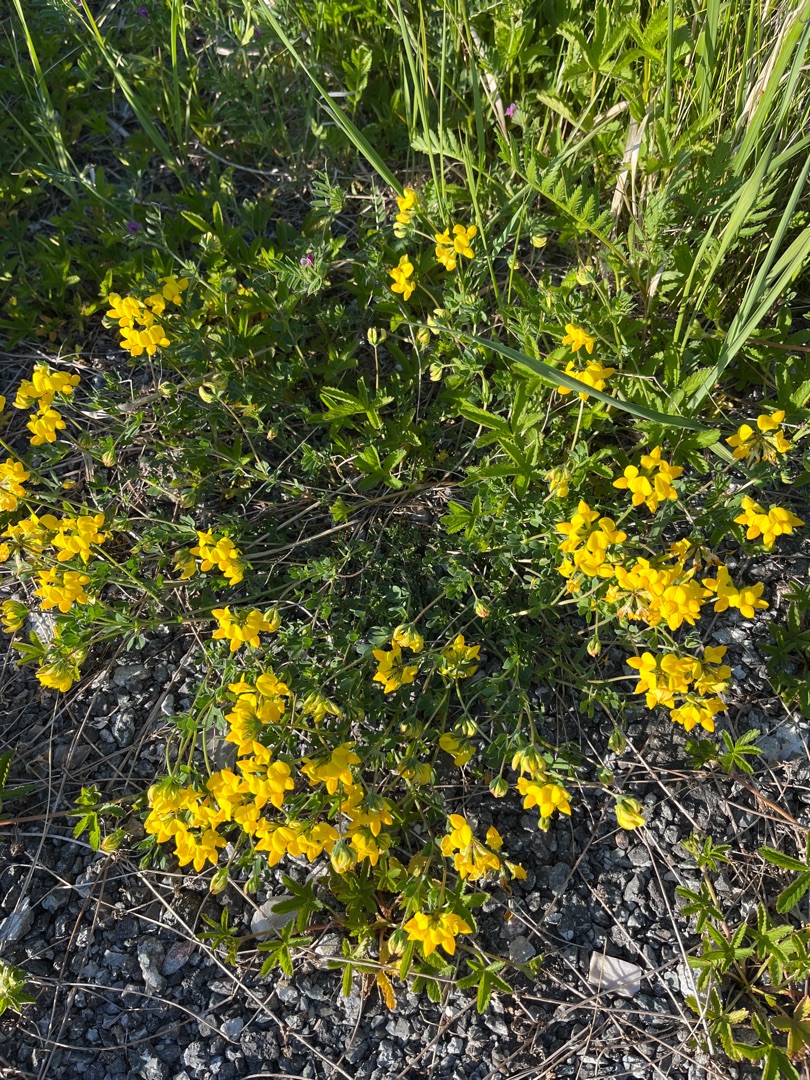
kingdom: Plantae
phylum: Tracheophyta
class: Magnoliopsida
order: Fabales
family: Fabaceae
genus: Lotus
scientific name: Lotus corniculatus
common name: Almindelig kællingetand
